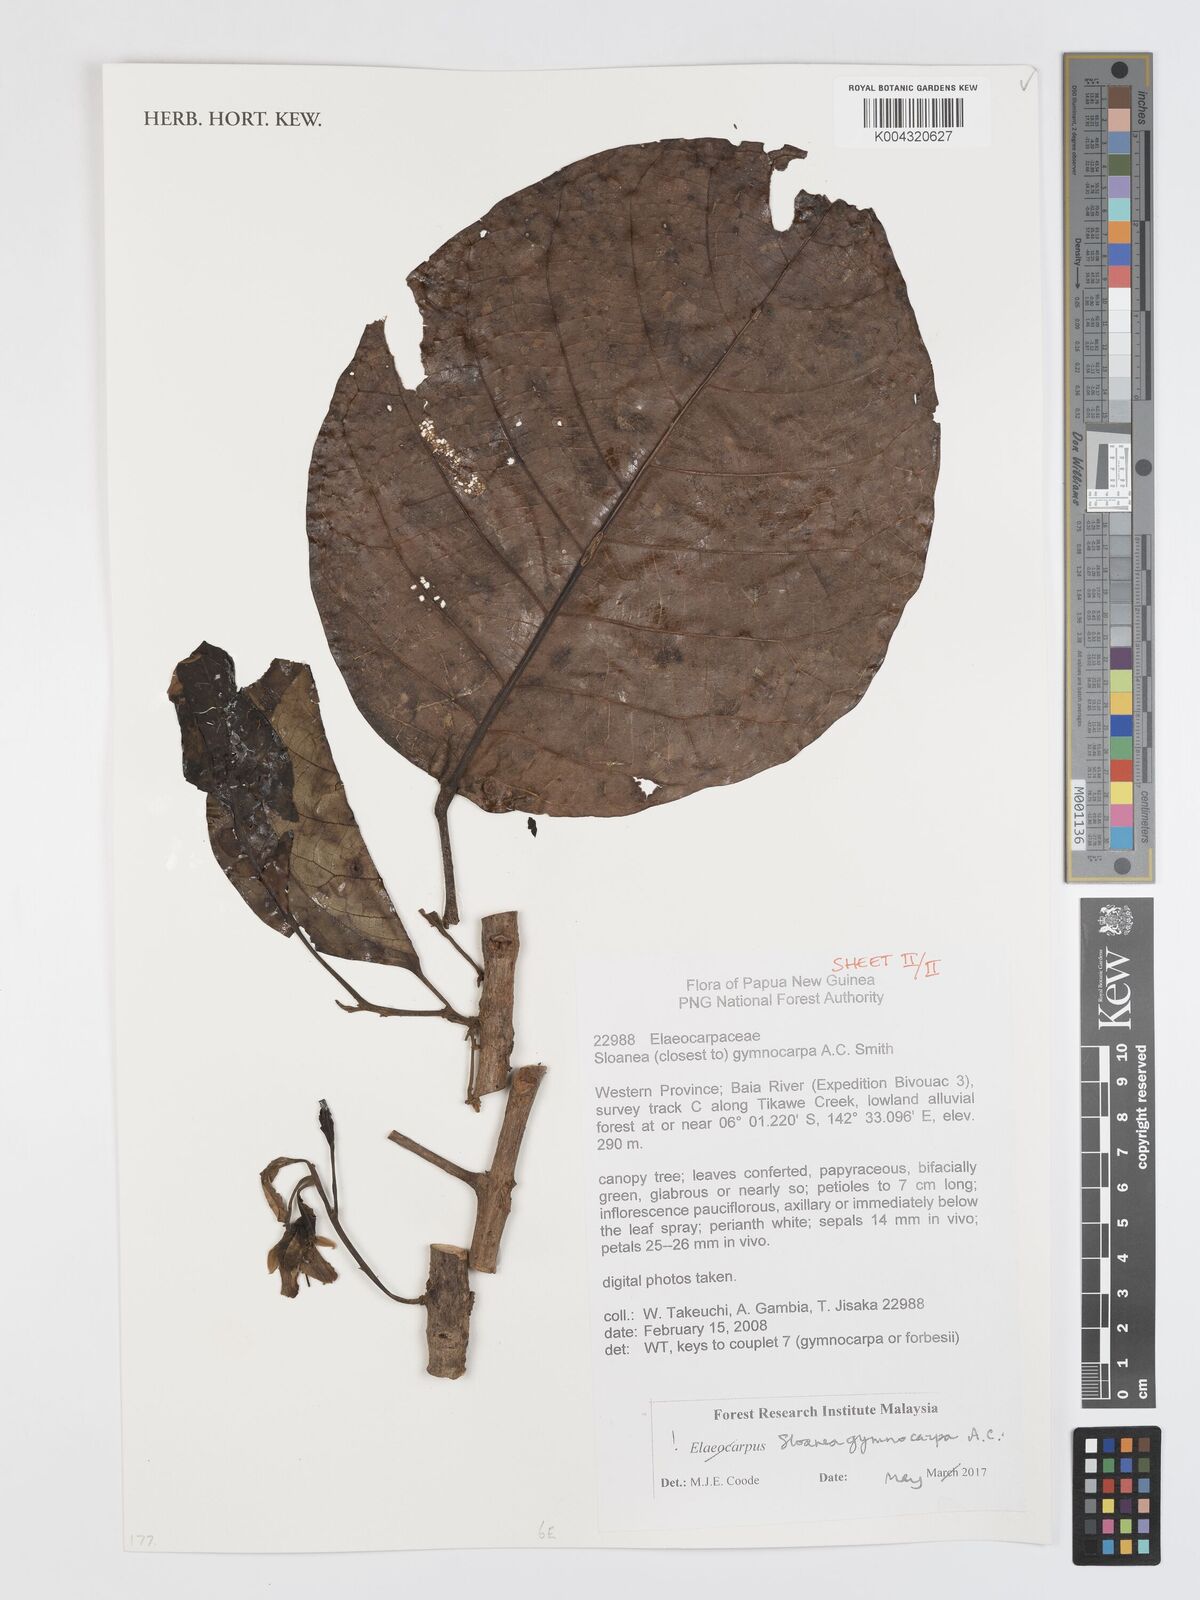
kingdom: Plantae
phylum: Tracheophyta
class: Magnoliopsida
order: Oxalidales
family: Elaeocarpaceae
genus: Sloanea
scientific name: Sloanea gymnocarpa
